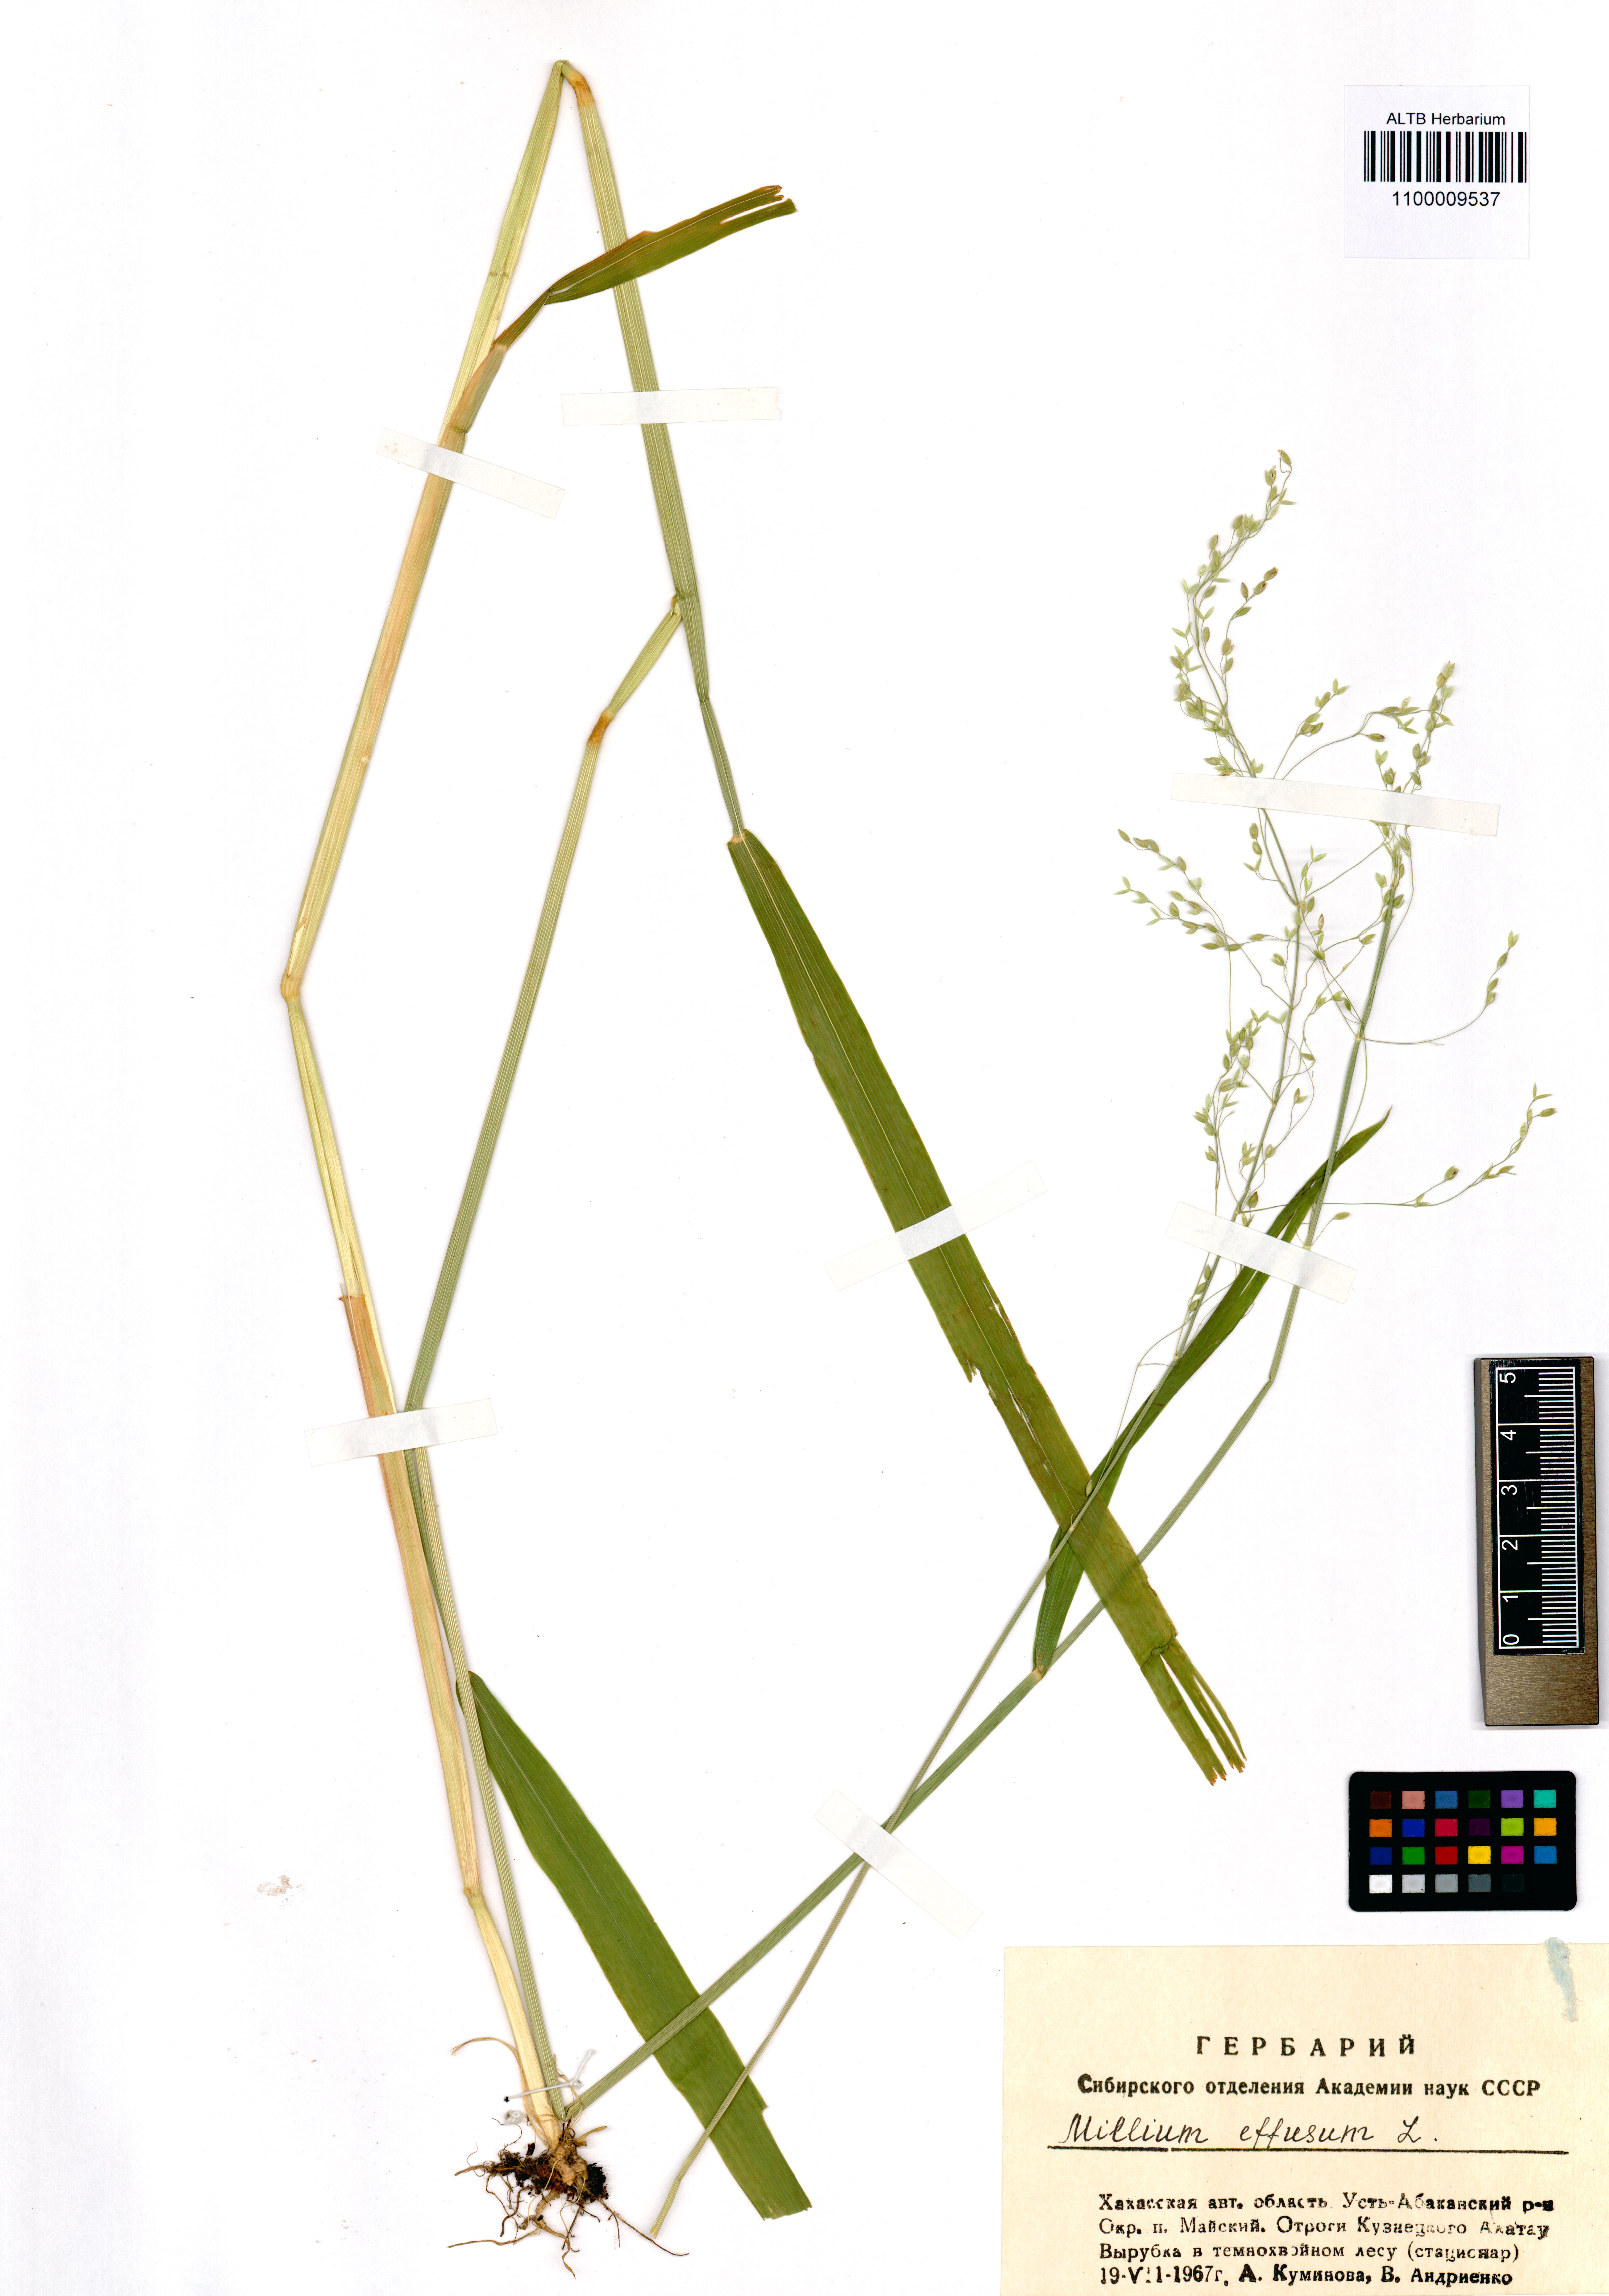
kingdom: Plantae
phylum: Tracheophyta
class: Liliopsida
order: Poales
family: Poaceae
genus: Milium
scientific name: Milium effusum
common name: Wood millet
